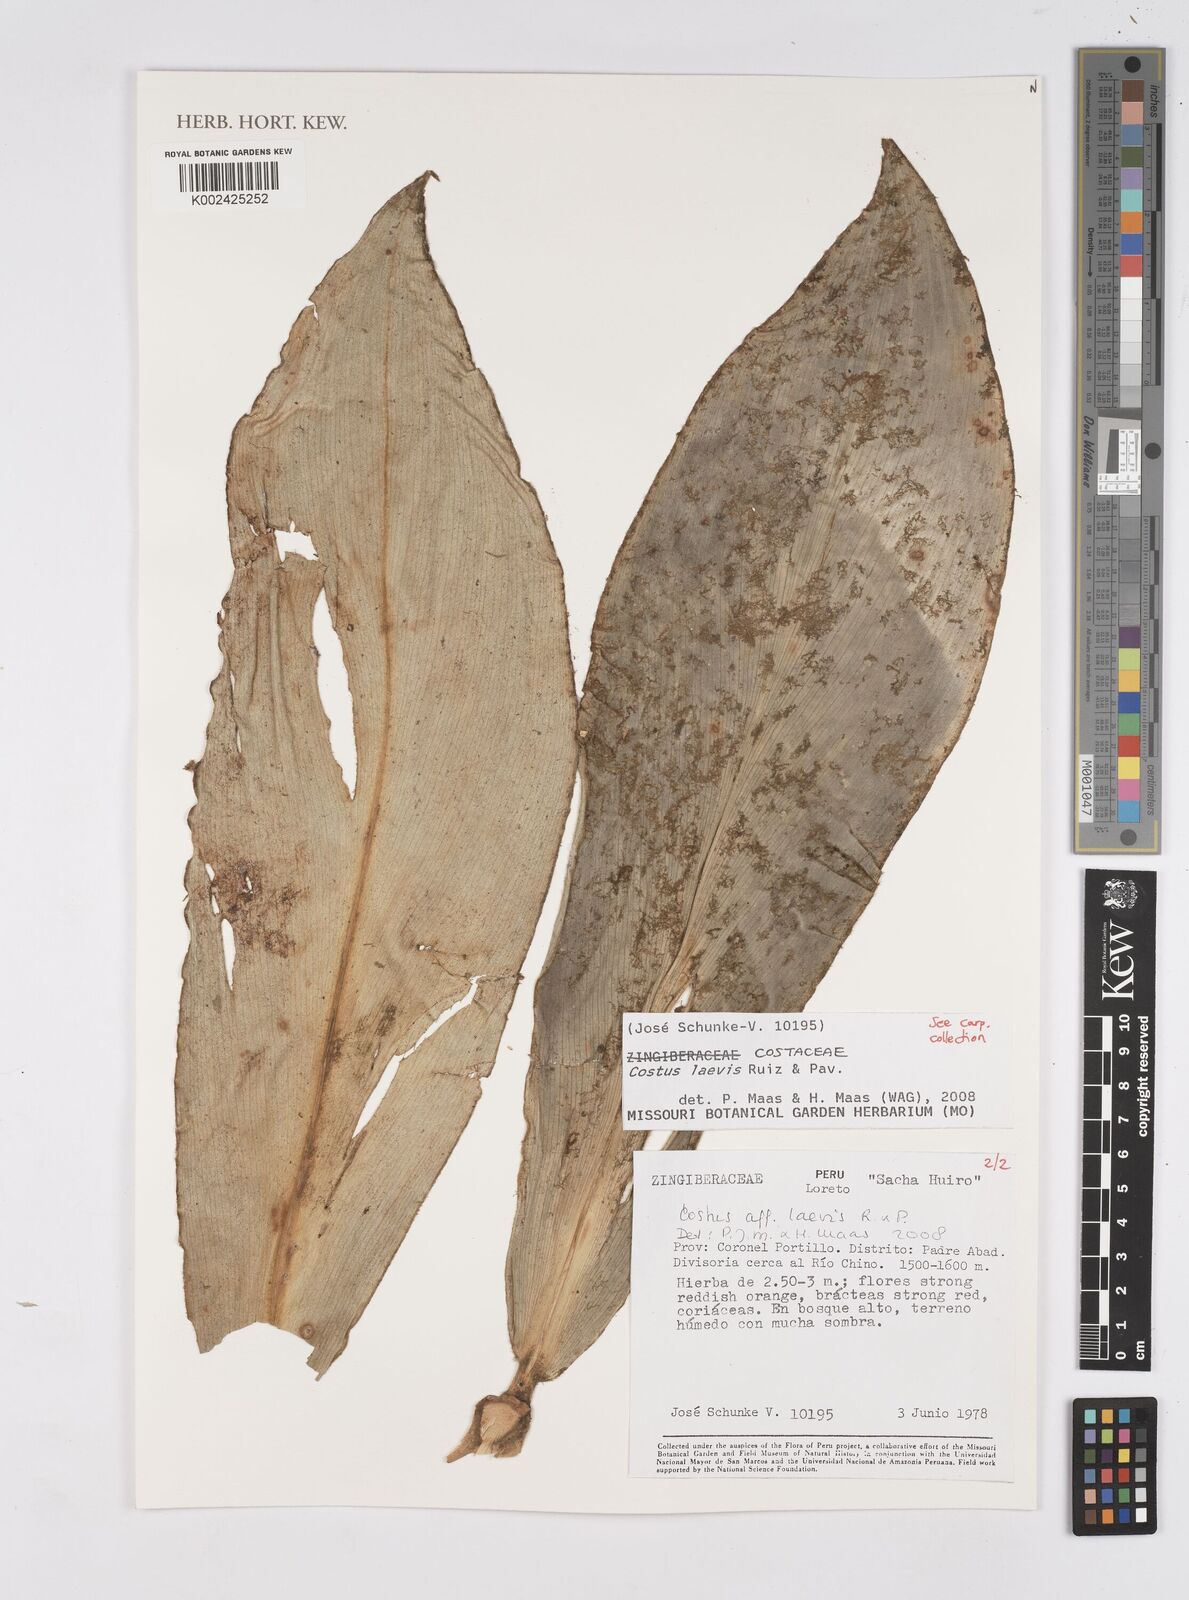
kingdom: Plantae
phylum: Tracheophyta
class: Liliopsida
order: Zingiberales
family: Costaceae
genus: Costus
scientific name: Costus laevis
